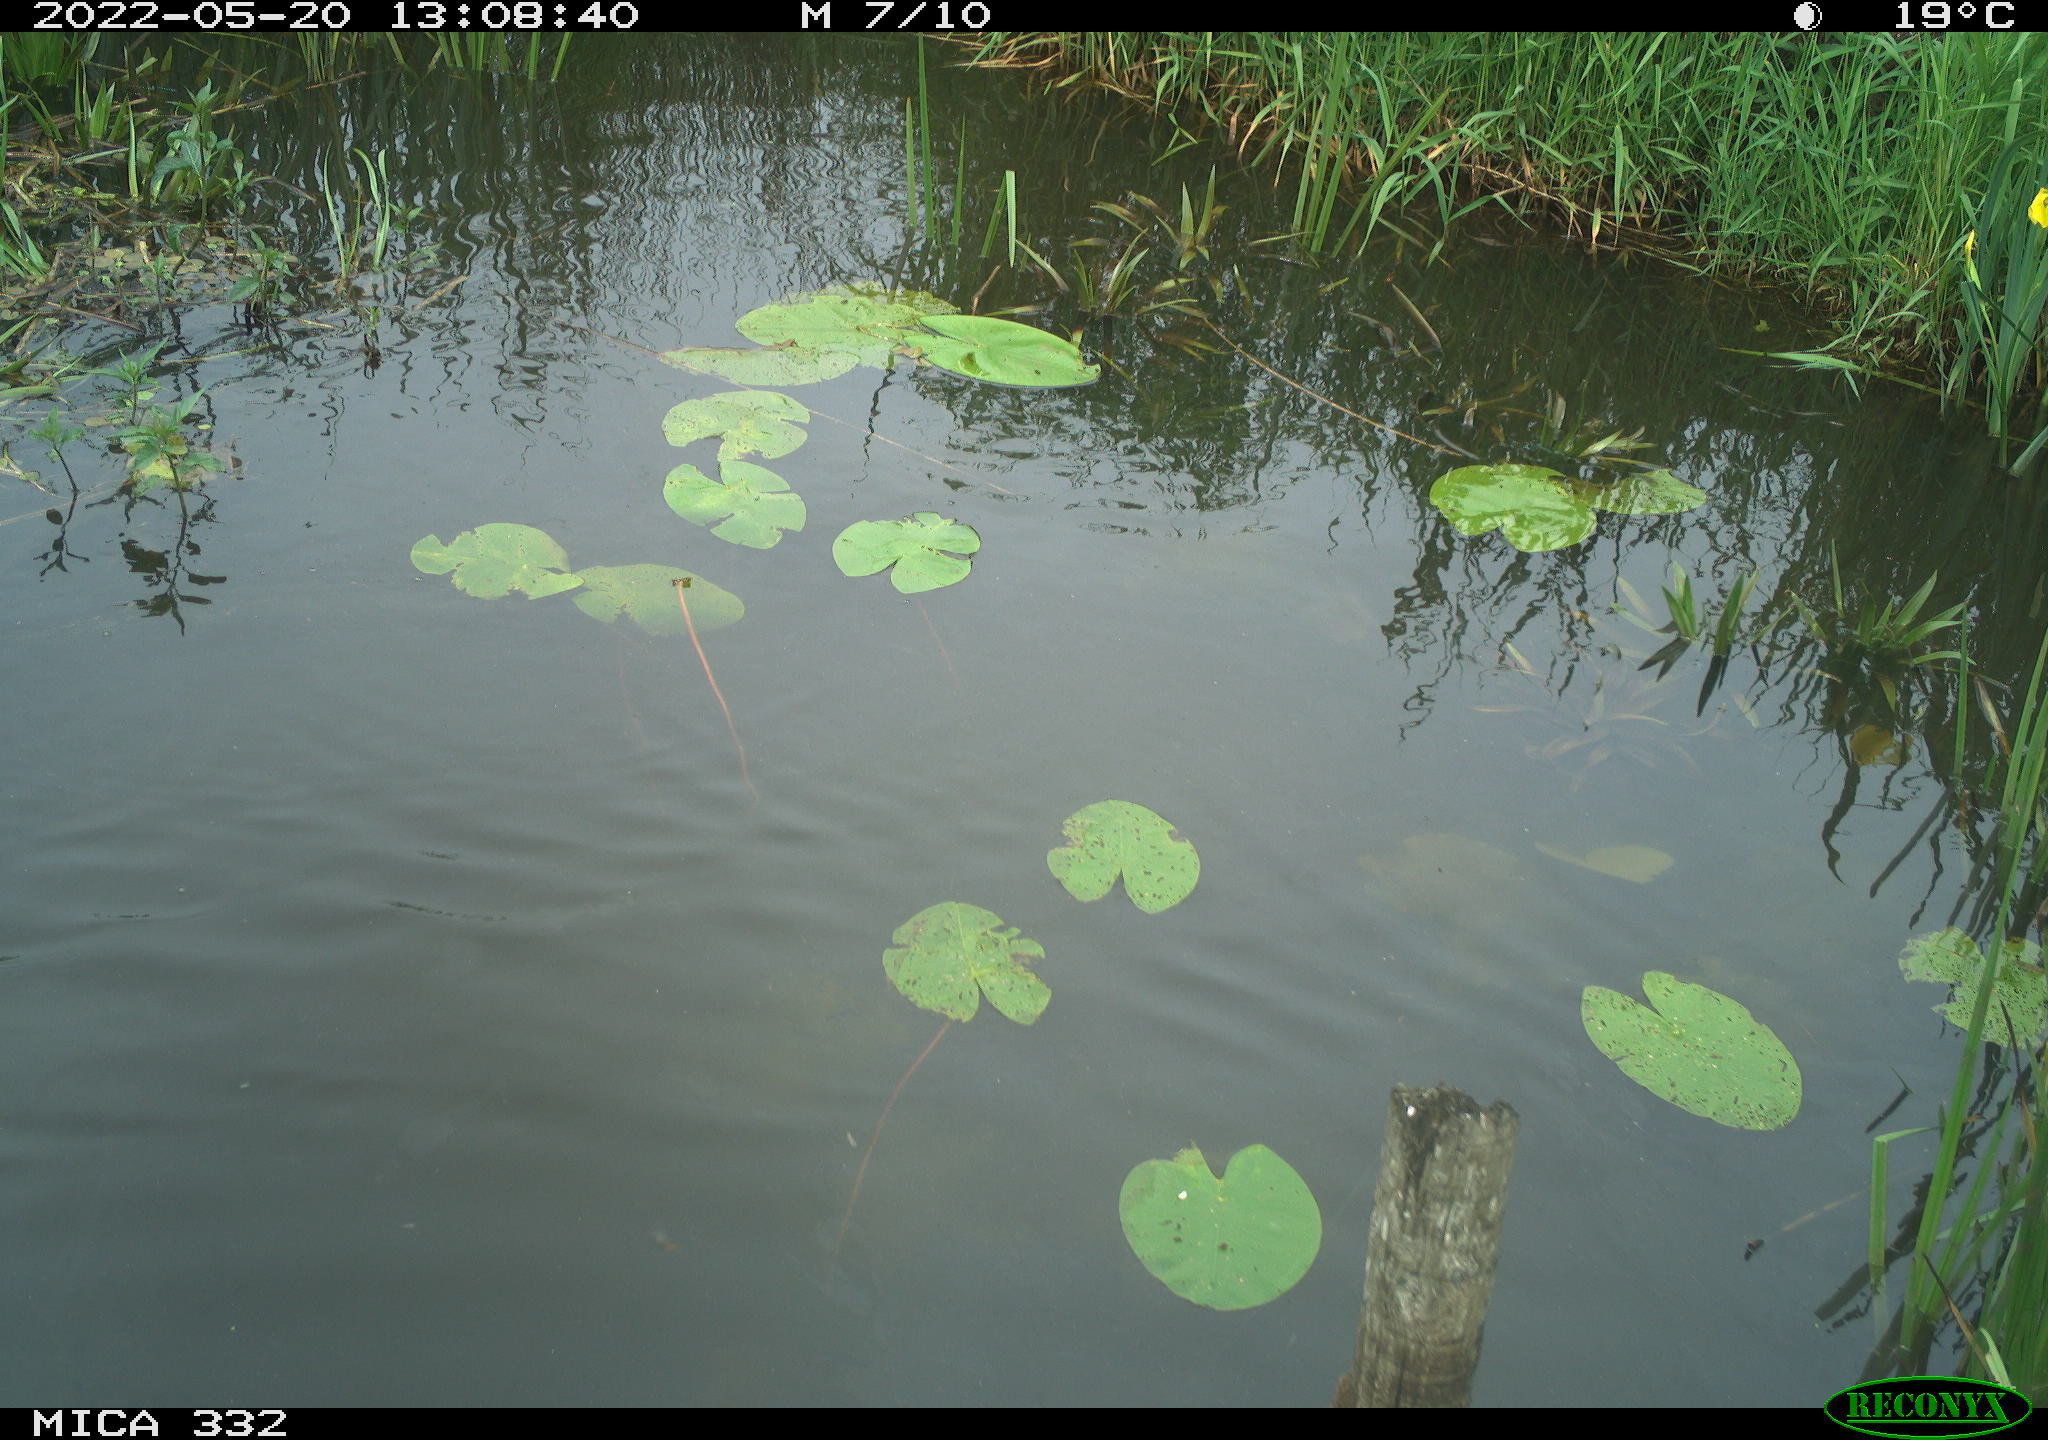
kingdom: Animalia
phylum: Chordata
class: Aves
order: Anseriformes
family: Anatidae
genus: Anas
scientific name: Anas platyrhynchos
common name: Mallard
